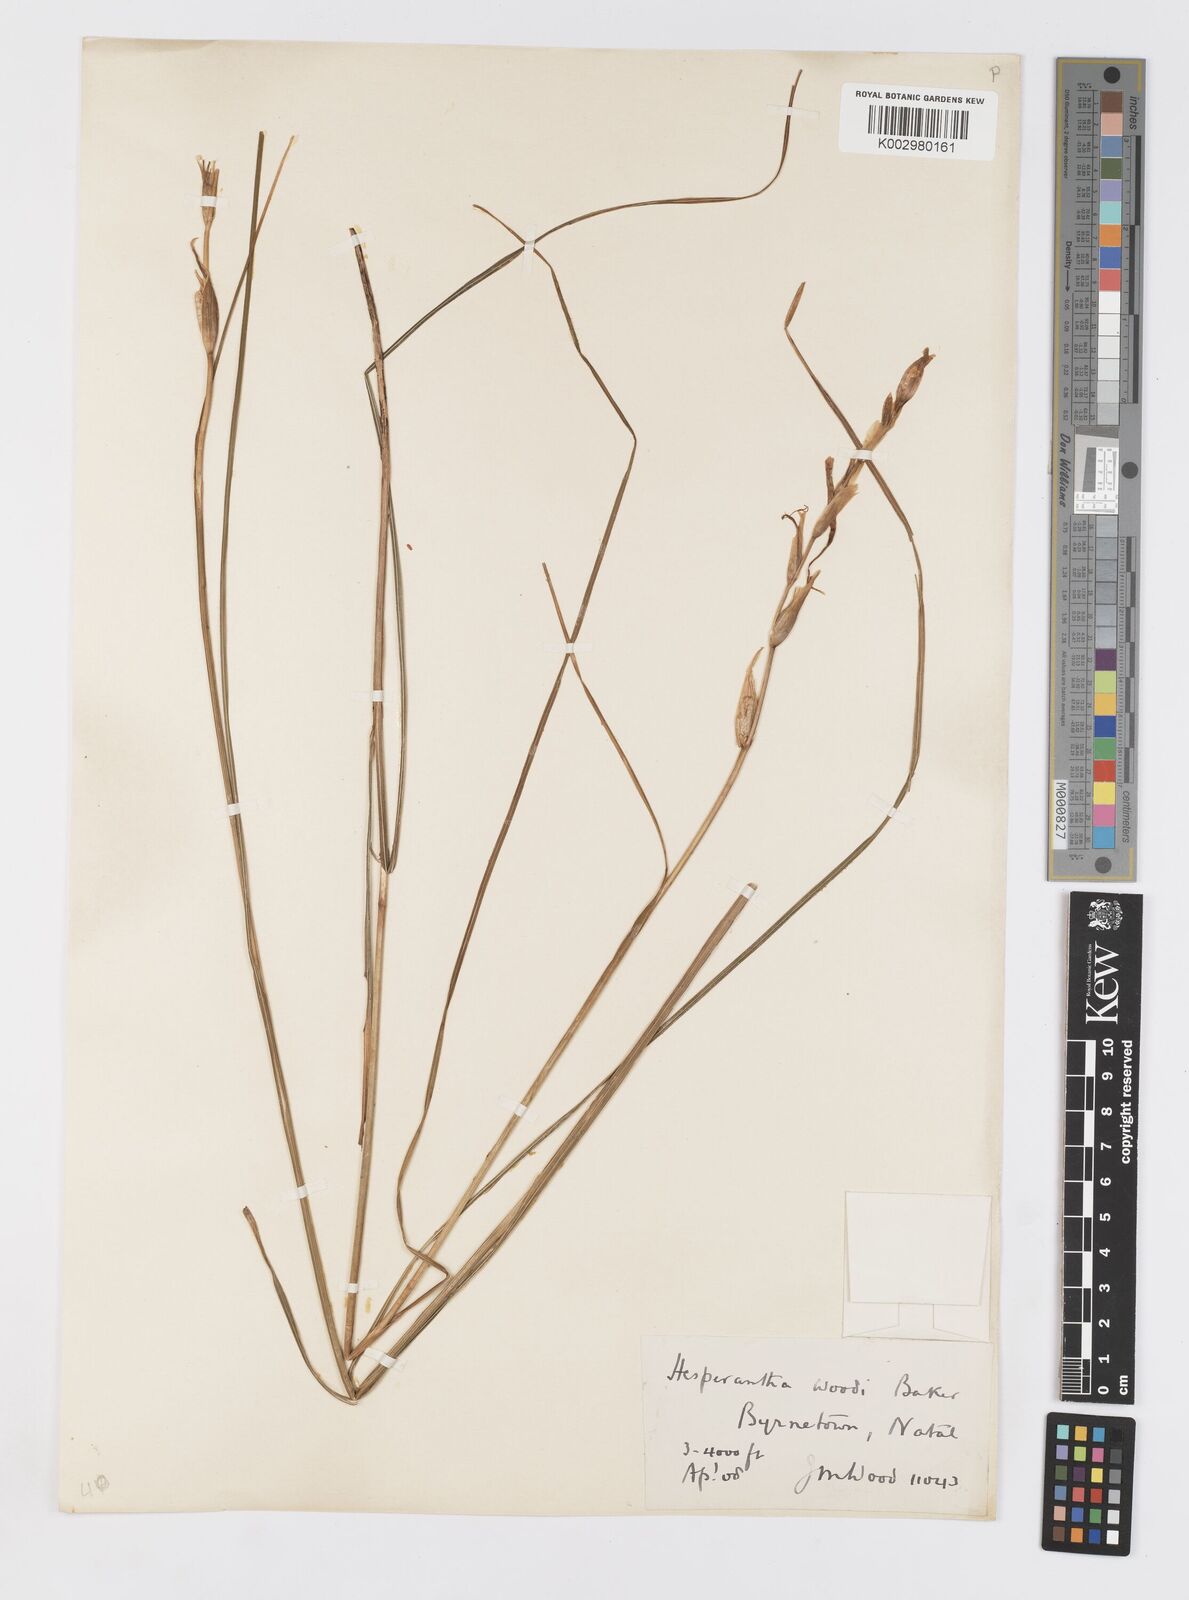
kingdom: Plantae
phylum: Tracheophyta
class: Liliopsida
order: Asparagales
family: Iridaceae
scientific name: Iridaceae
